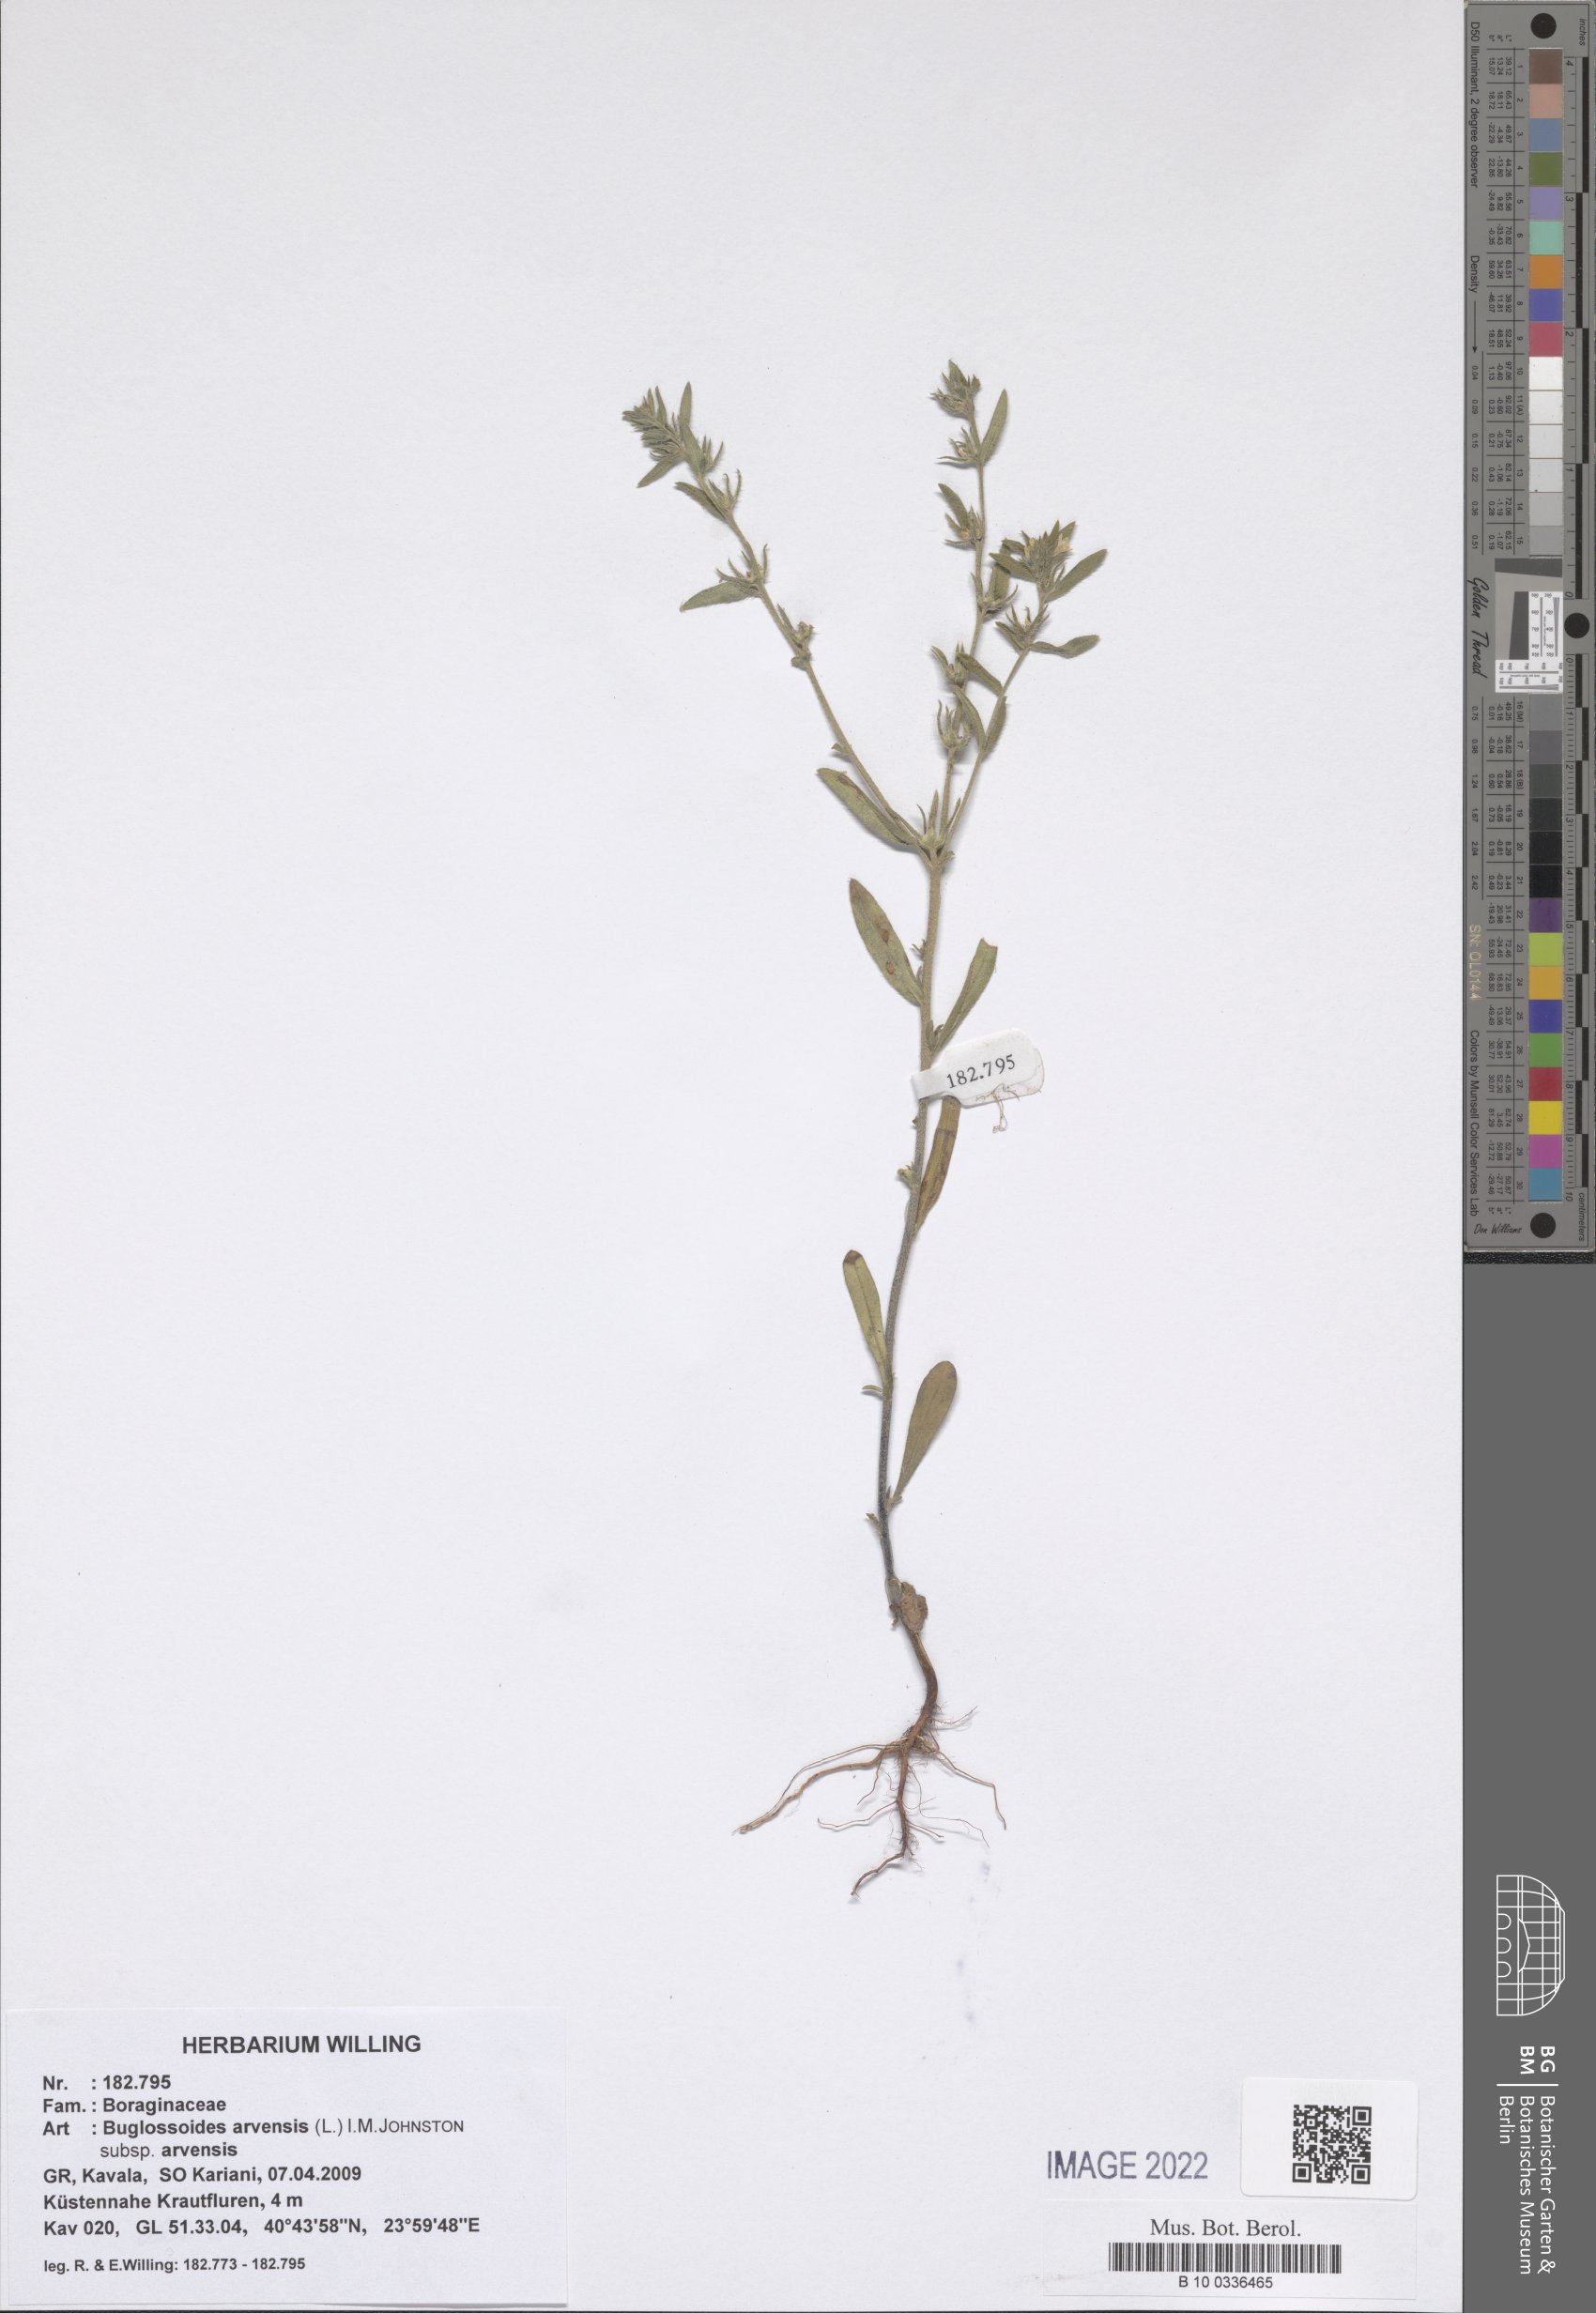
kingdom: Plantae
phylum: Tracheophyta
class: Magnoliopsida
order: Boraginales
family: Boraginaceae
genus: Buglossoides
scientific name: Buglossoides arvensis
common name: Corn gromwell
